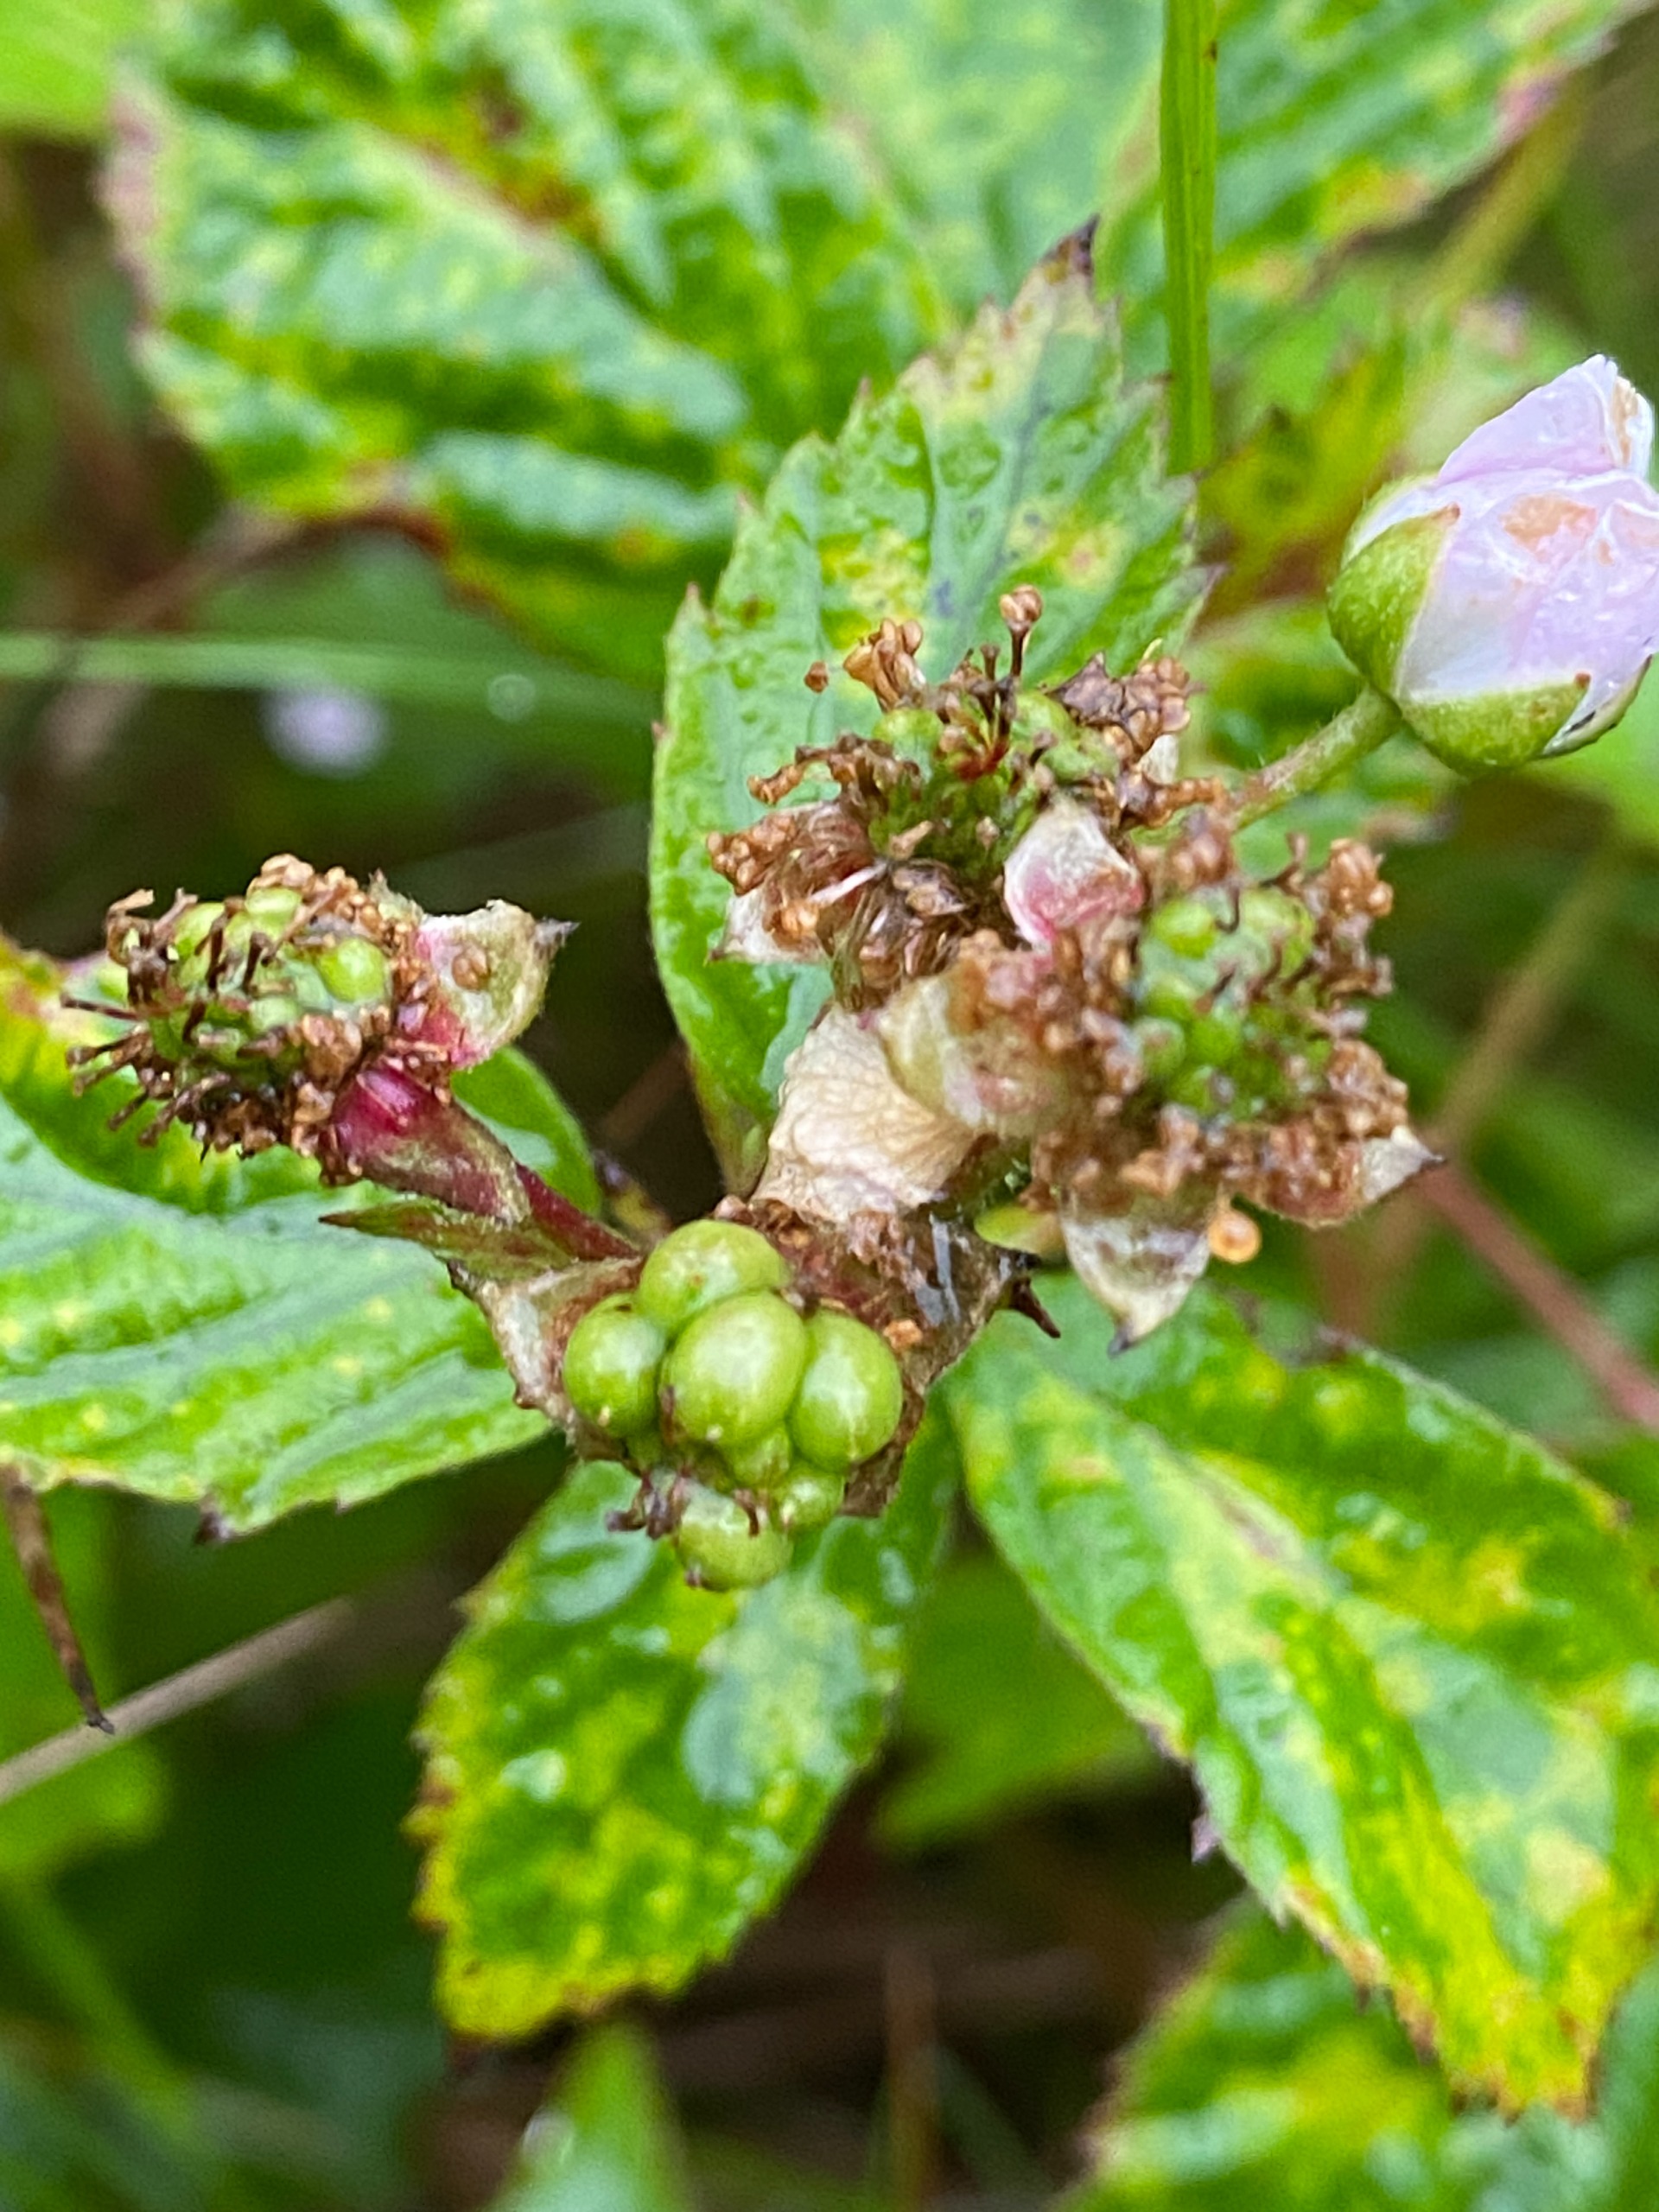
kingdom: Plantae
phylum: Tracheophyta
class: Magnoliopsida
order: Rosales
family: Rosaceae
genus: Rubus
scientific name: Rubus
